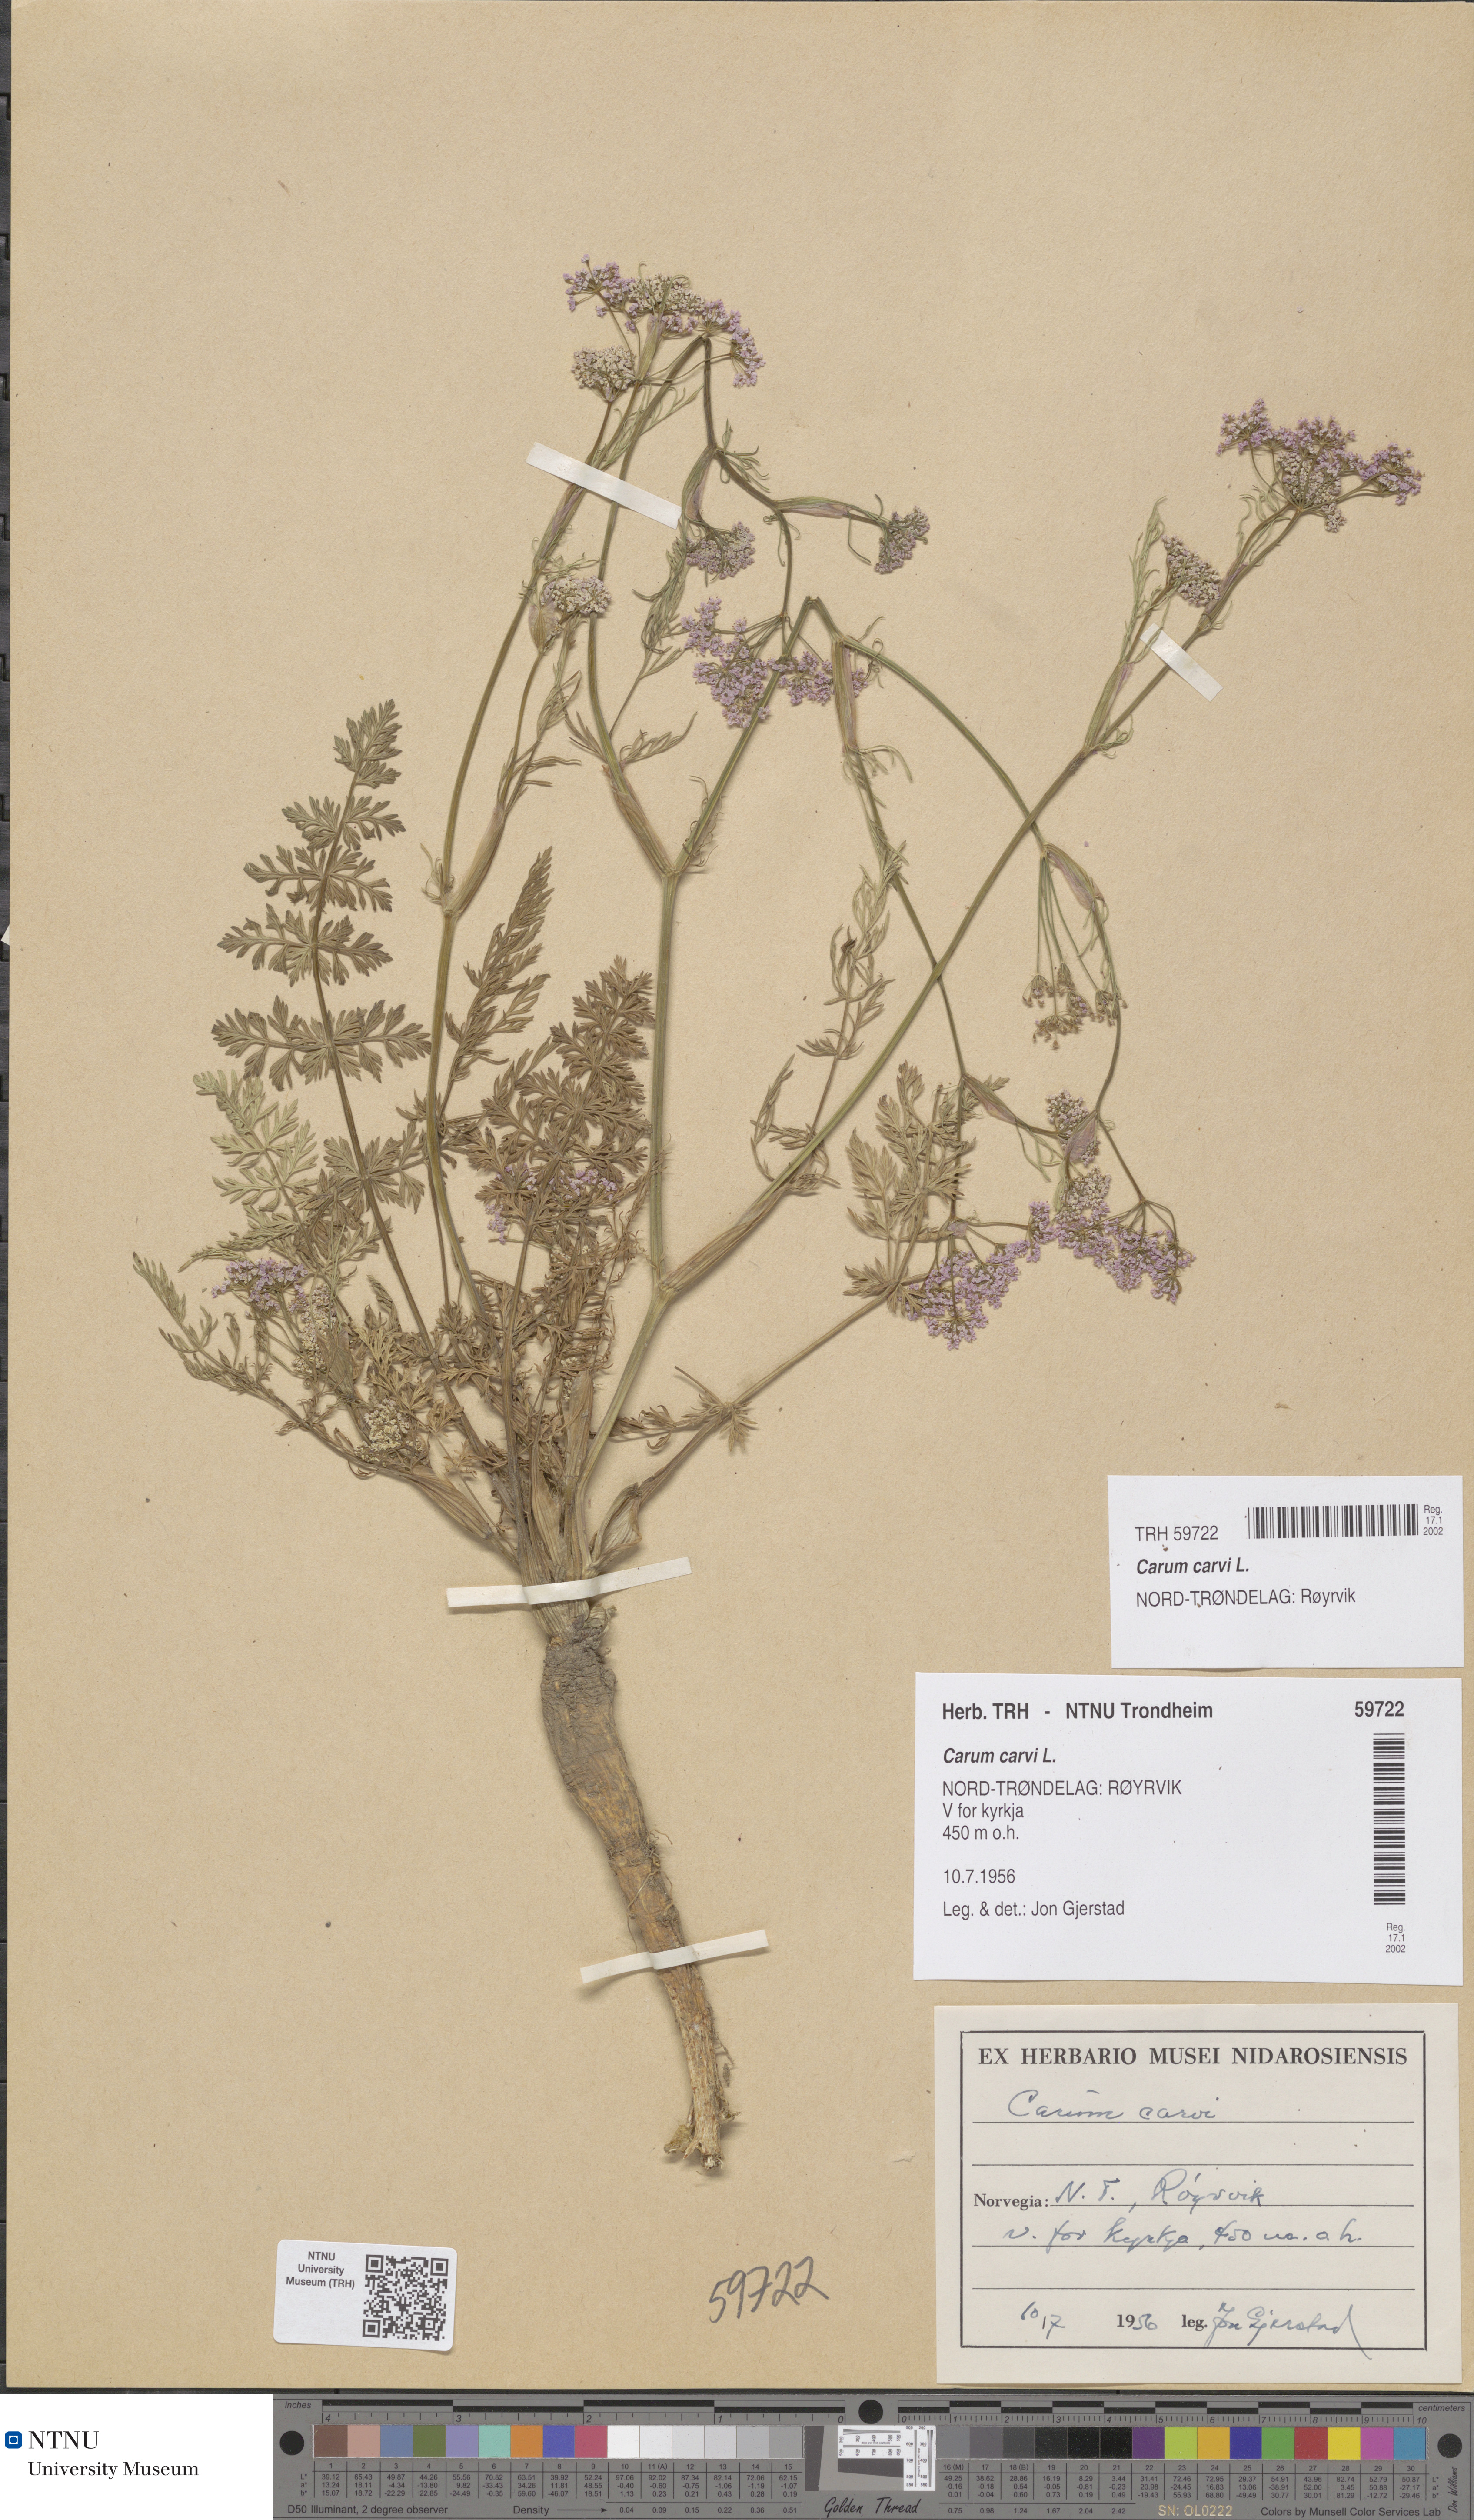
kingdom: Plantae
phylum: Tracheophyta
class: Magnoliopsida
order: Apiales
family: Apiaceae
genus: Carum
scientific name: Carum carvi
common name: Caraway
